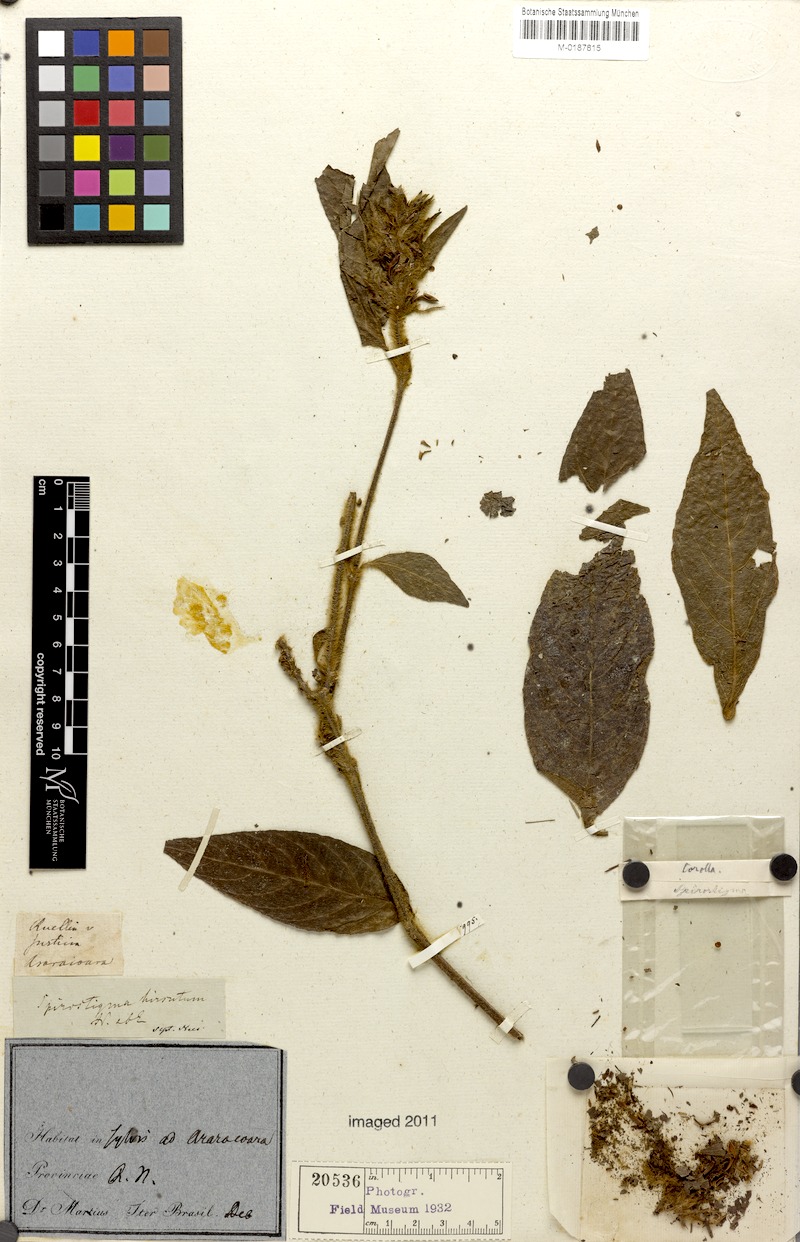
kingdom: Plantae
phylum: Tracheophyta
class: Magnoliopsida
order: Lamiales
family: Acanthaceae
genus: Ruellia
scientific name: Ruellia hirsutissima
